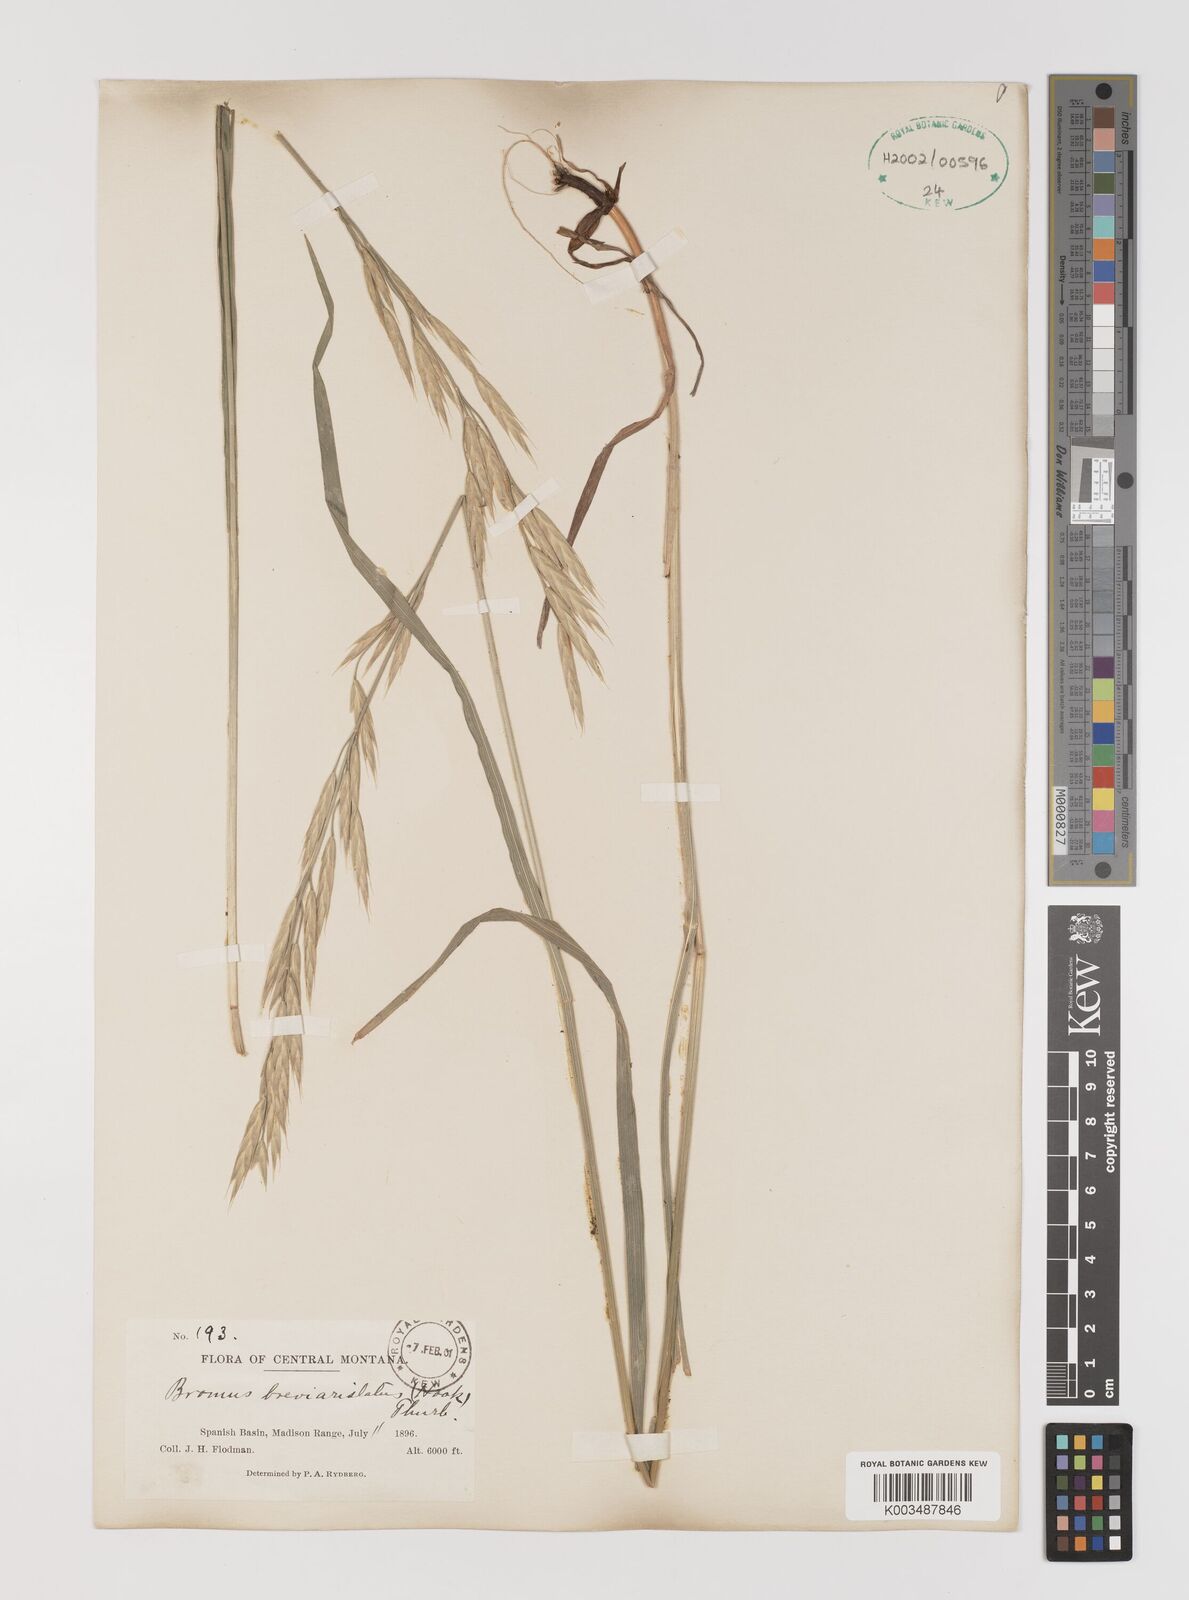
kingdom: Plantae
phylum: Tracheophyta
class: Liliopsida
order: Poales
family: Poaceae
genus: Bromus
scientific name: Bromus catharticus
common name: Rescuegrass
